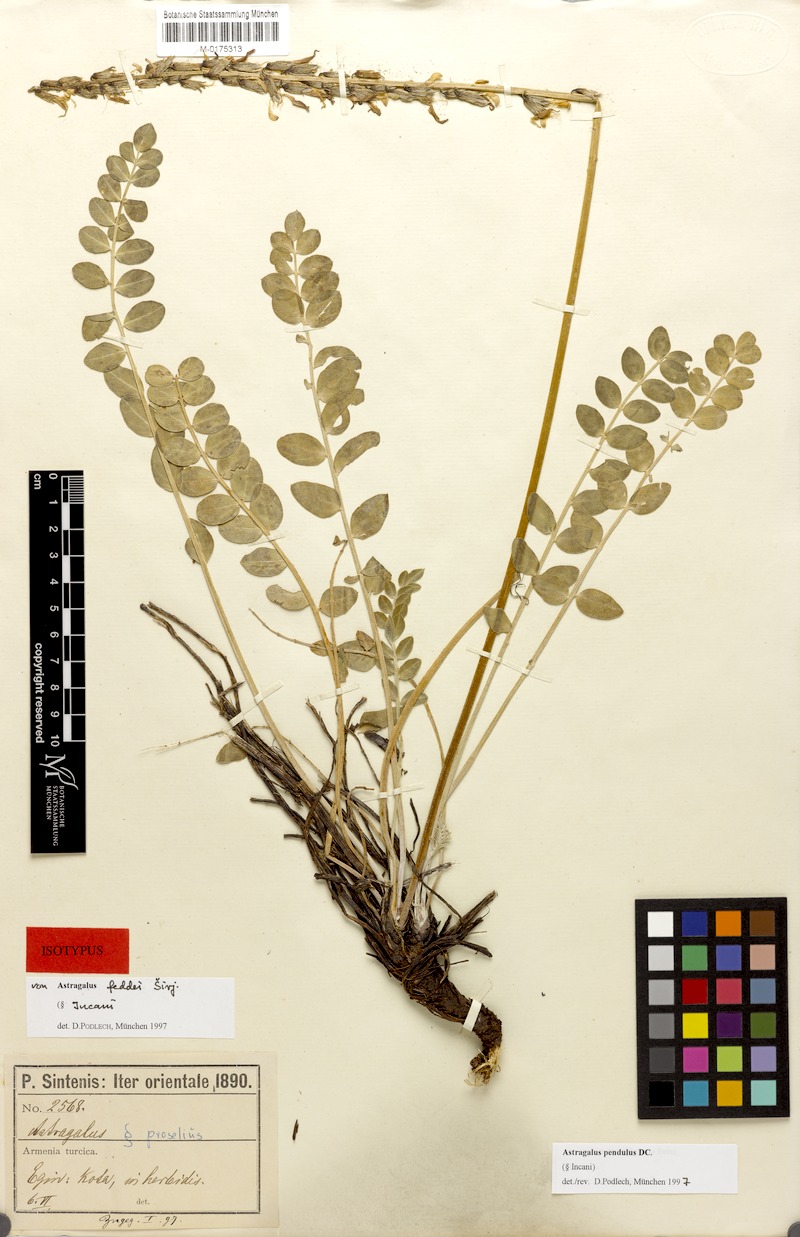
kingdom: Plantae
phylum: Tracheophyta
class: Magnoliopsida
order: Fabales
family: Fabaceae
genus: Astragalus
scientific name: Astragalus pendulus
